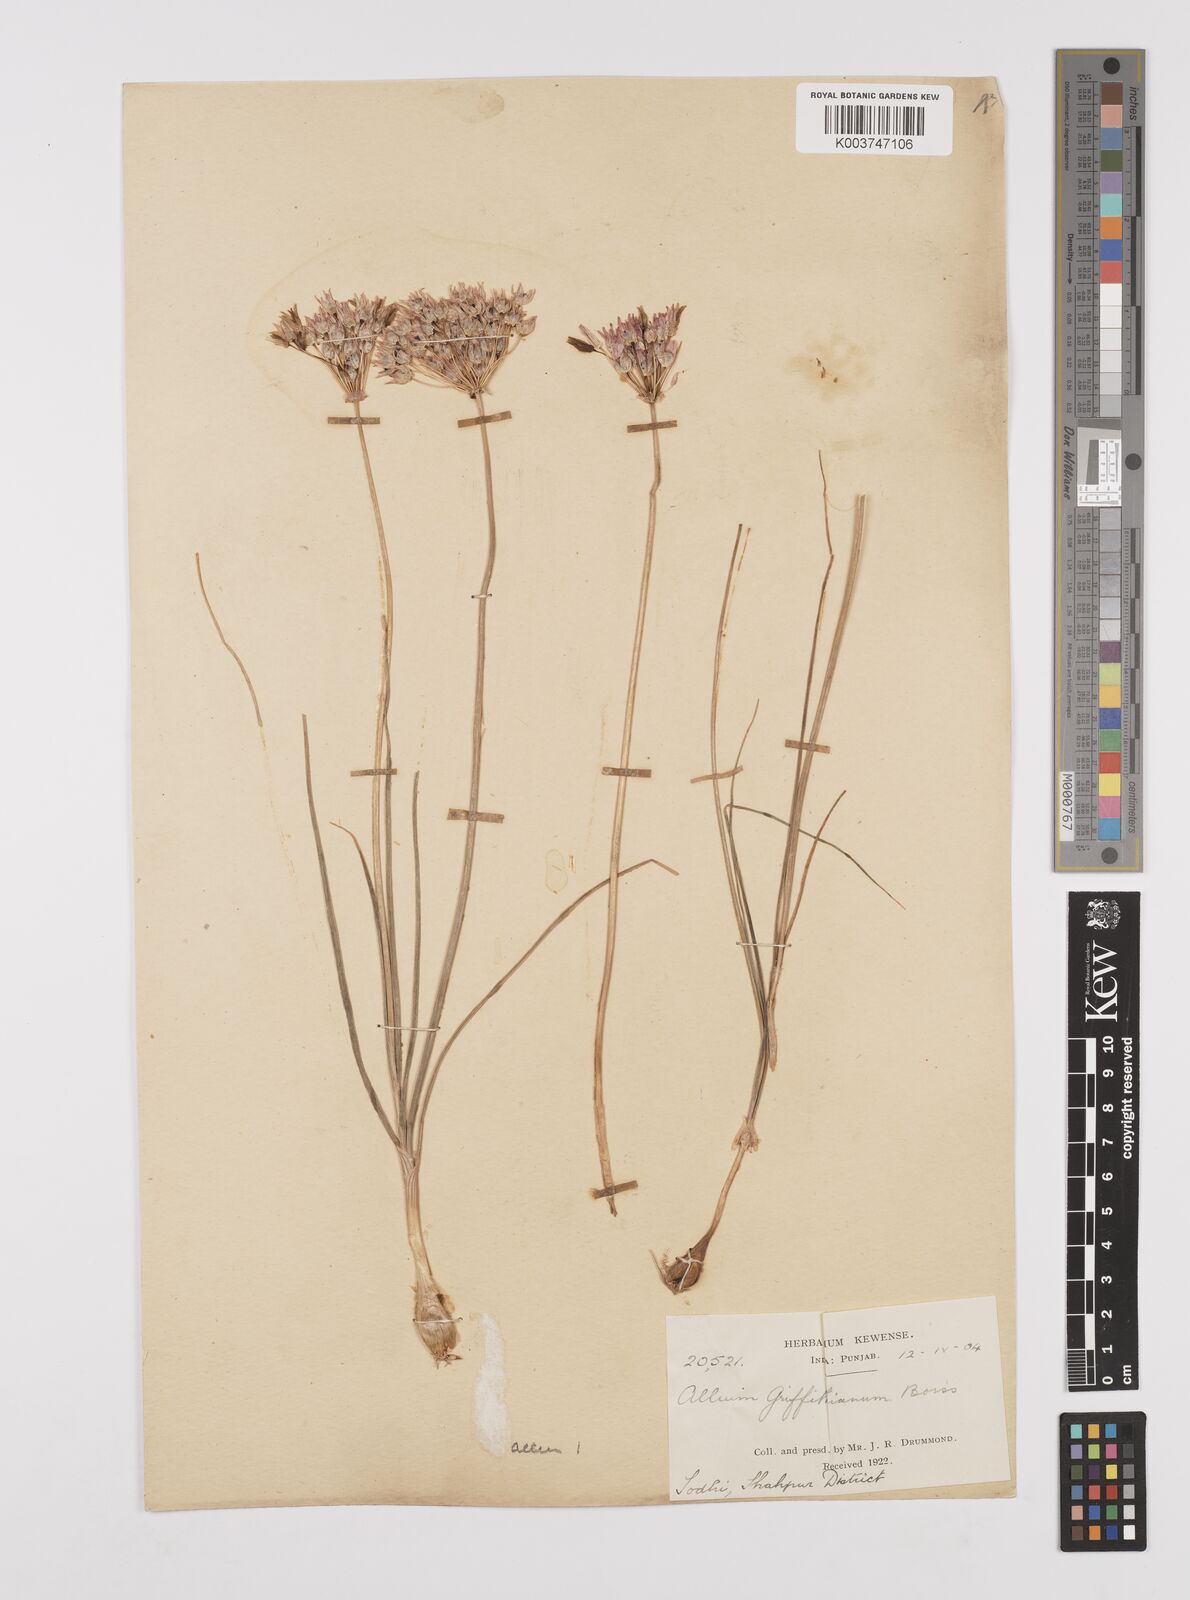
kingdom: Plantae
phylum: Tracheophyta
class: Liliopsida
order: Asparagales
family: Amaryllidaceae
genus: Allium
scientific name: Allium griffithianum
